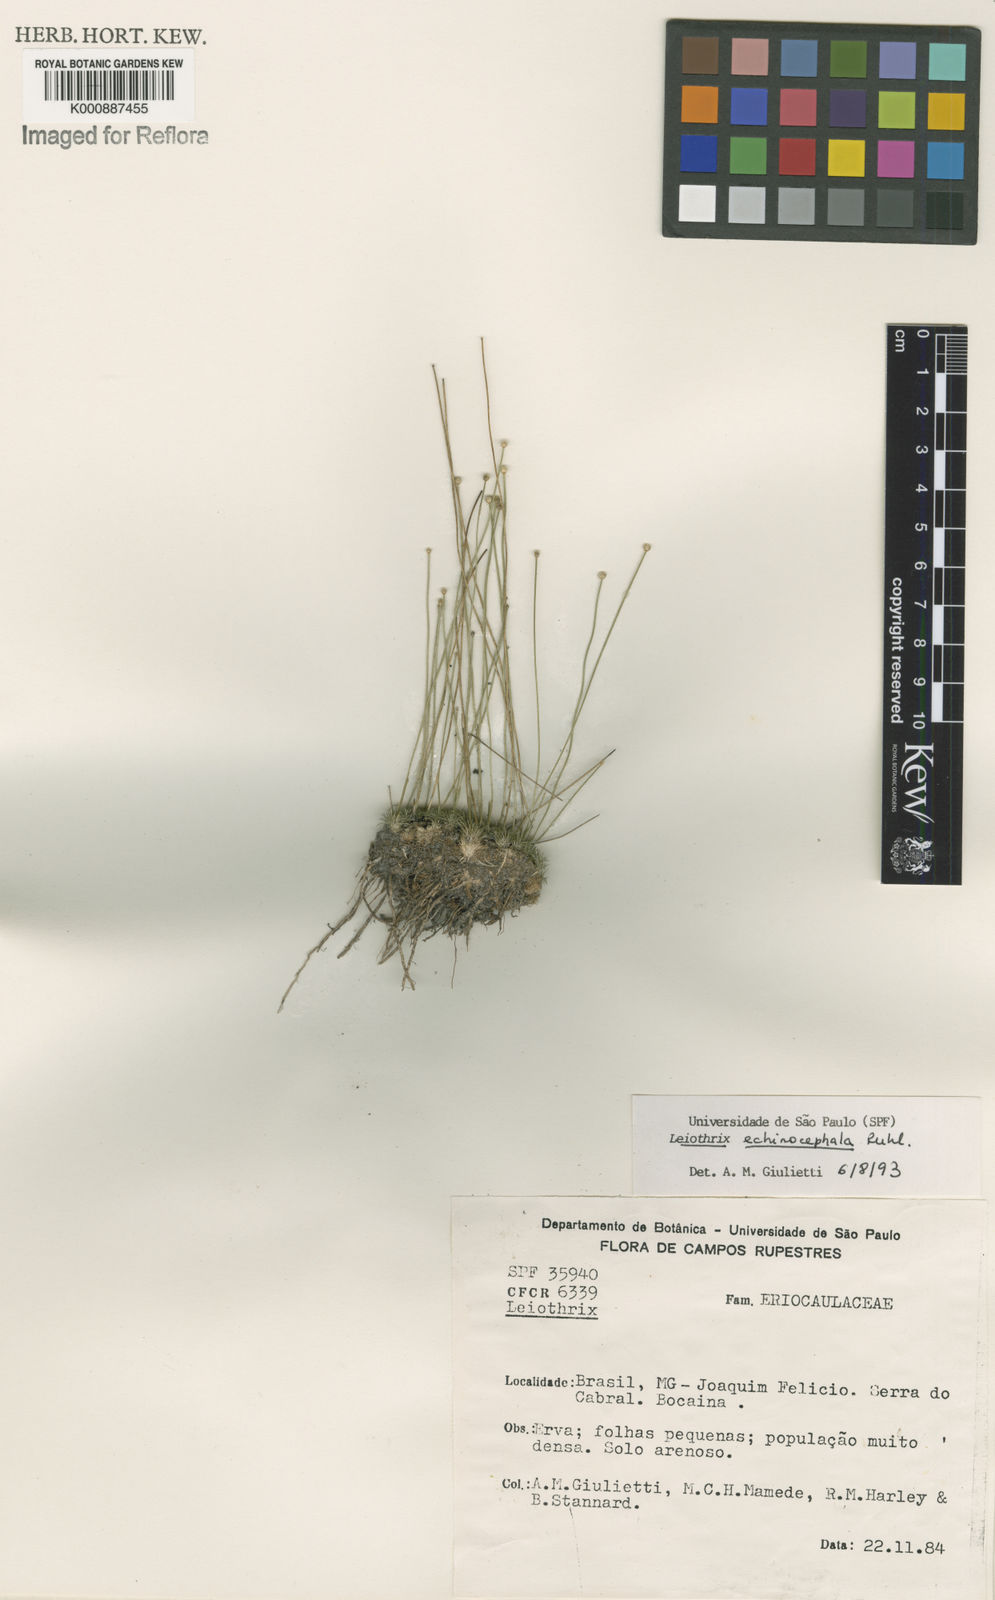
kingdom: Plantae
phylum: Tracheophyta
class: Liliopsida
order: Poales
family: Eriocaulaceae
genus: Leiothrix
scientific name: Leiothrix echinocephala
